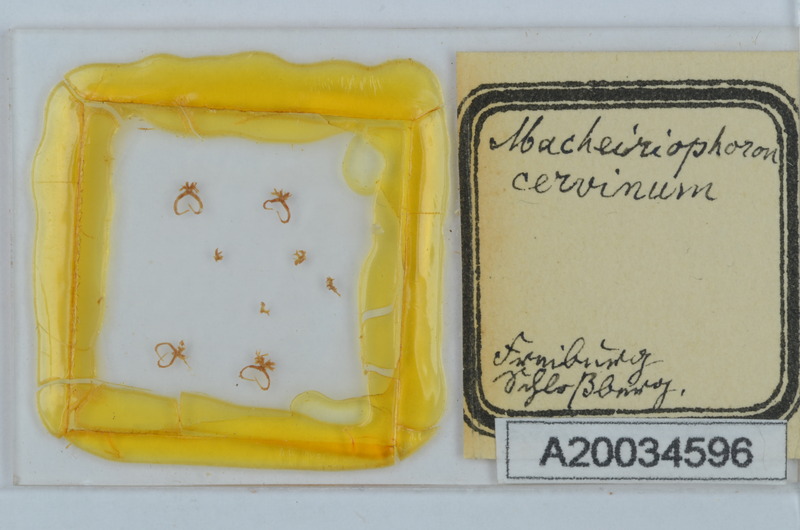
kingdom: Animalia
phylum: Arthropoda
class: Diplopoda
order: Chordeumatida
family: Craspedosomatidae
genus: Rhymogona
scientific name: Rhymogona montivaga
